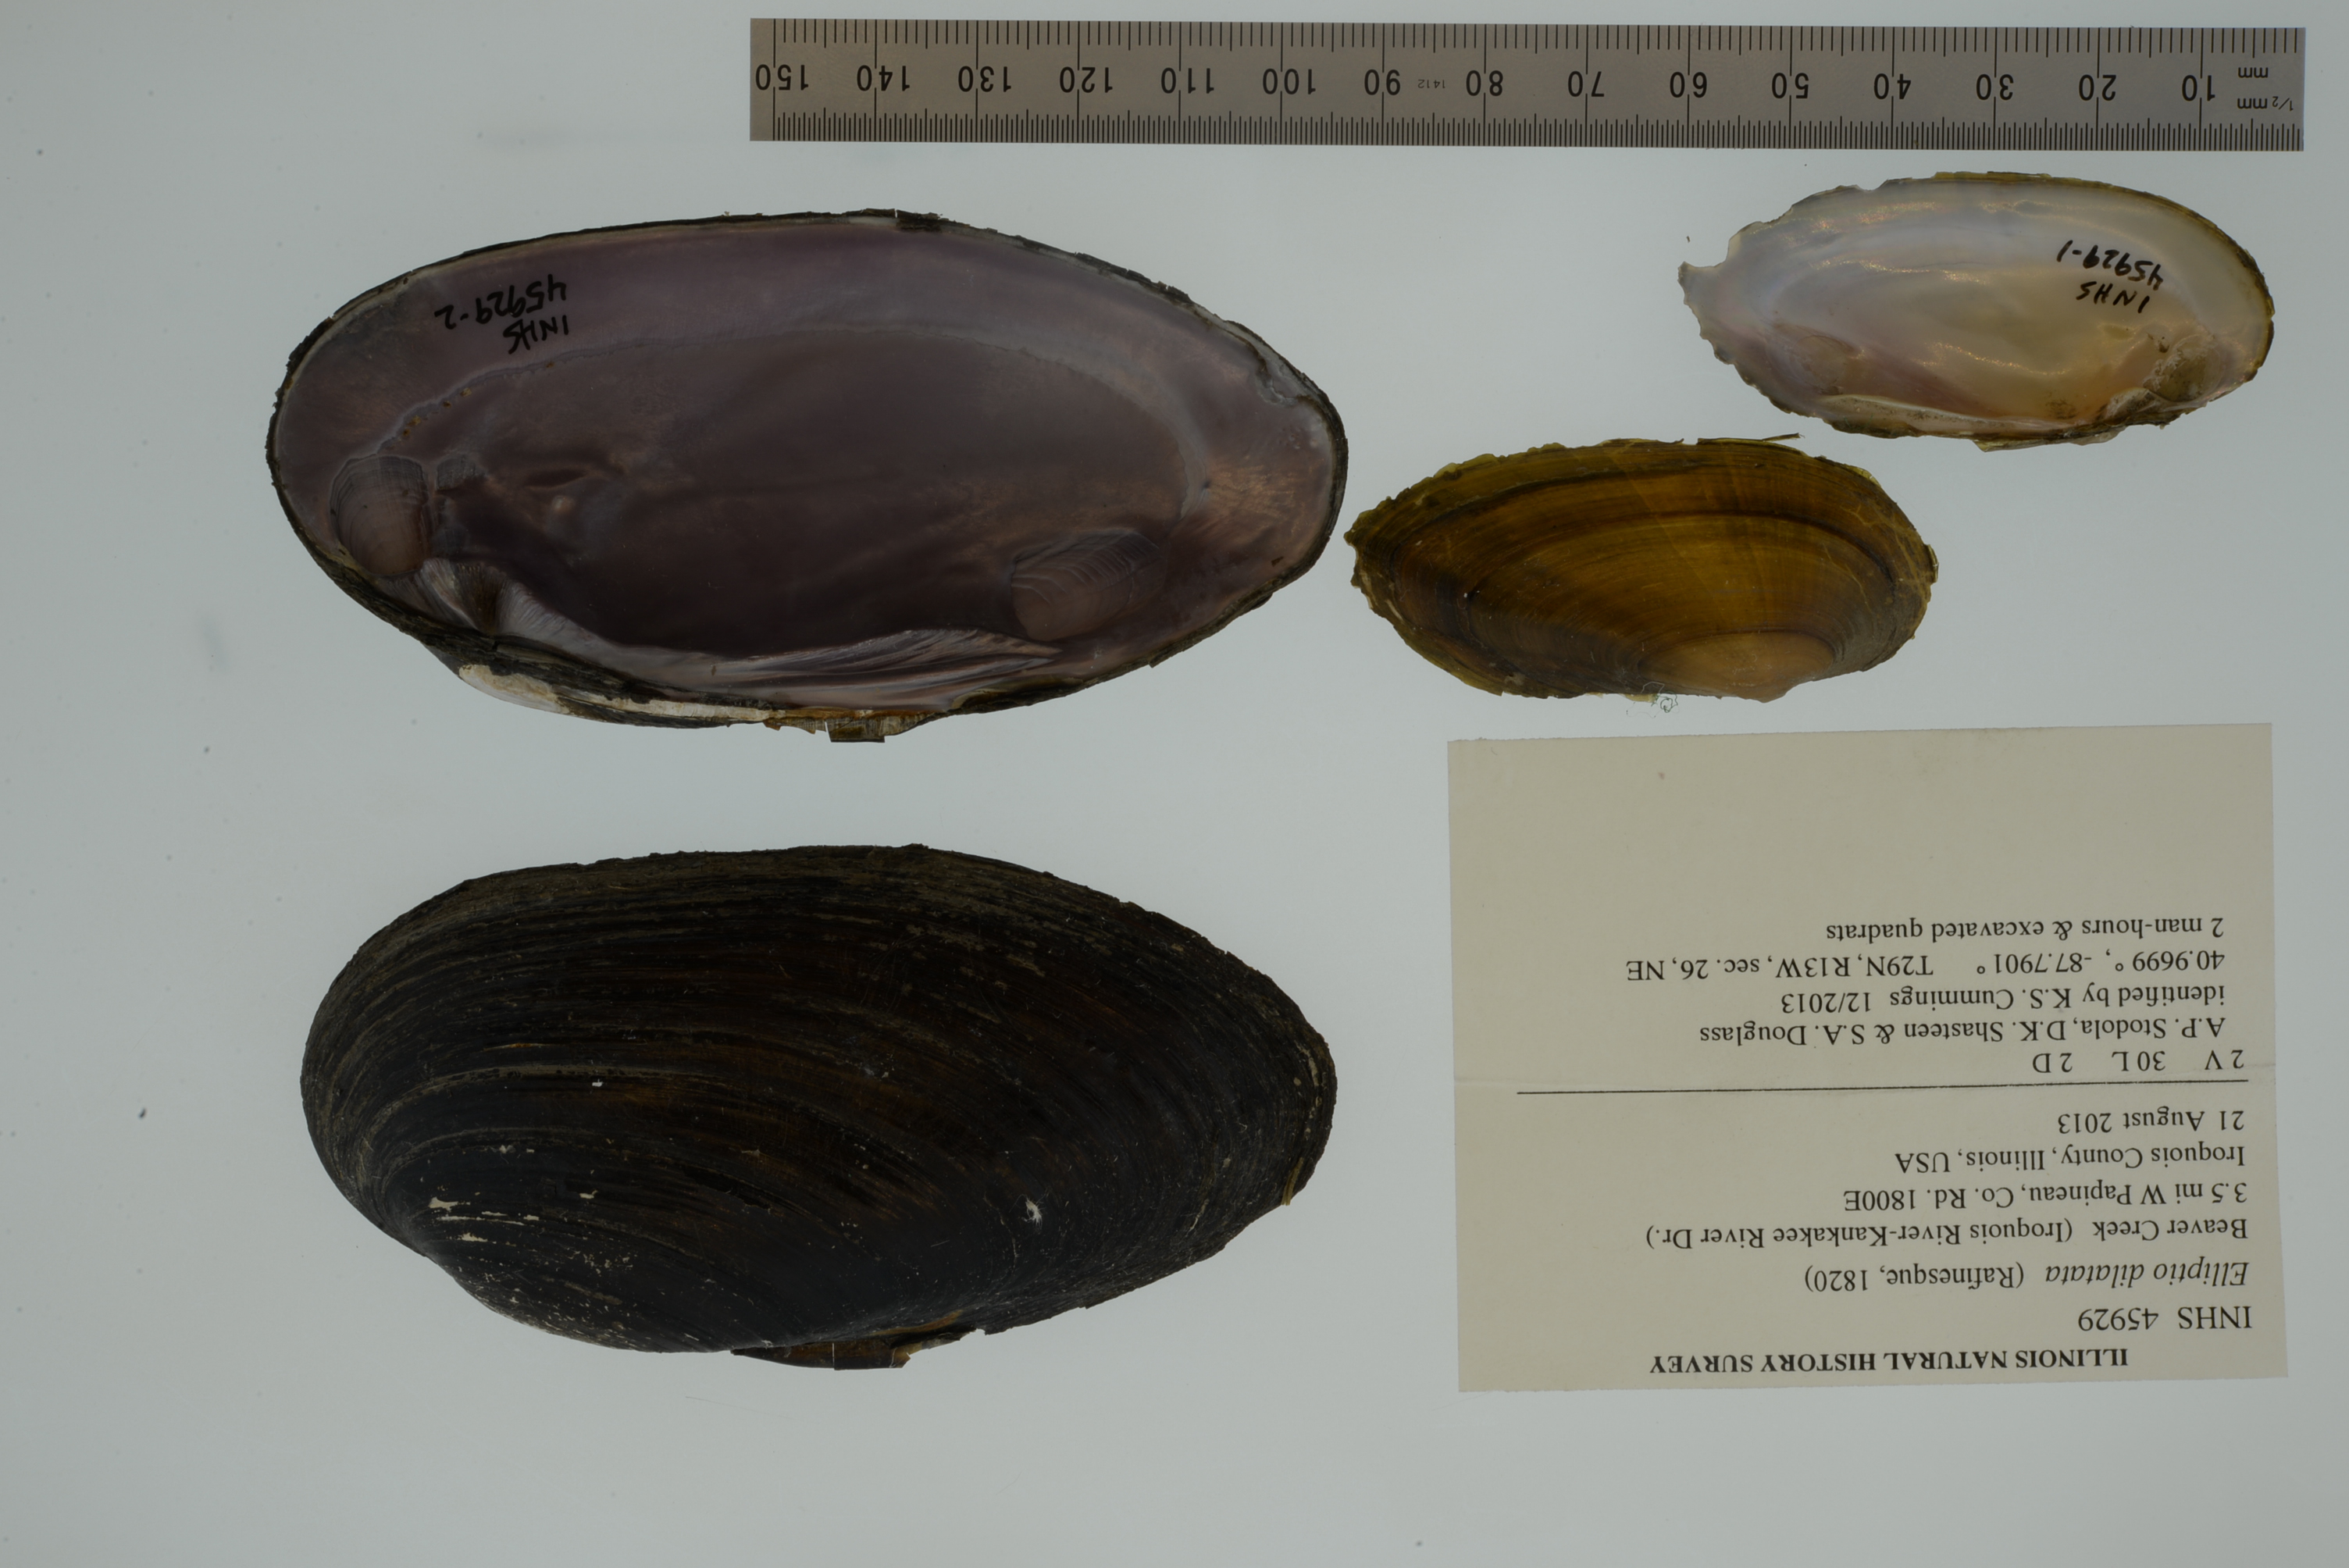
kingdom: Animalia
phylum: Mollusca
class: Bivalvia
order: Unionida
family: Unionidae
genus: Eurynia
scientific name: Eurynia dilatata
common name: Spike
